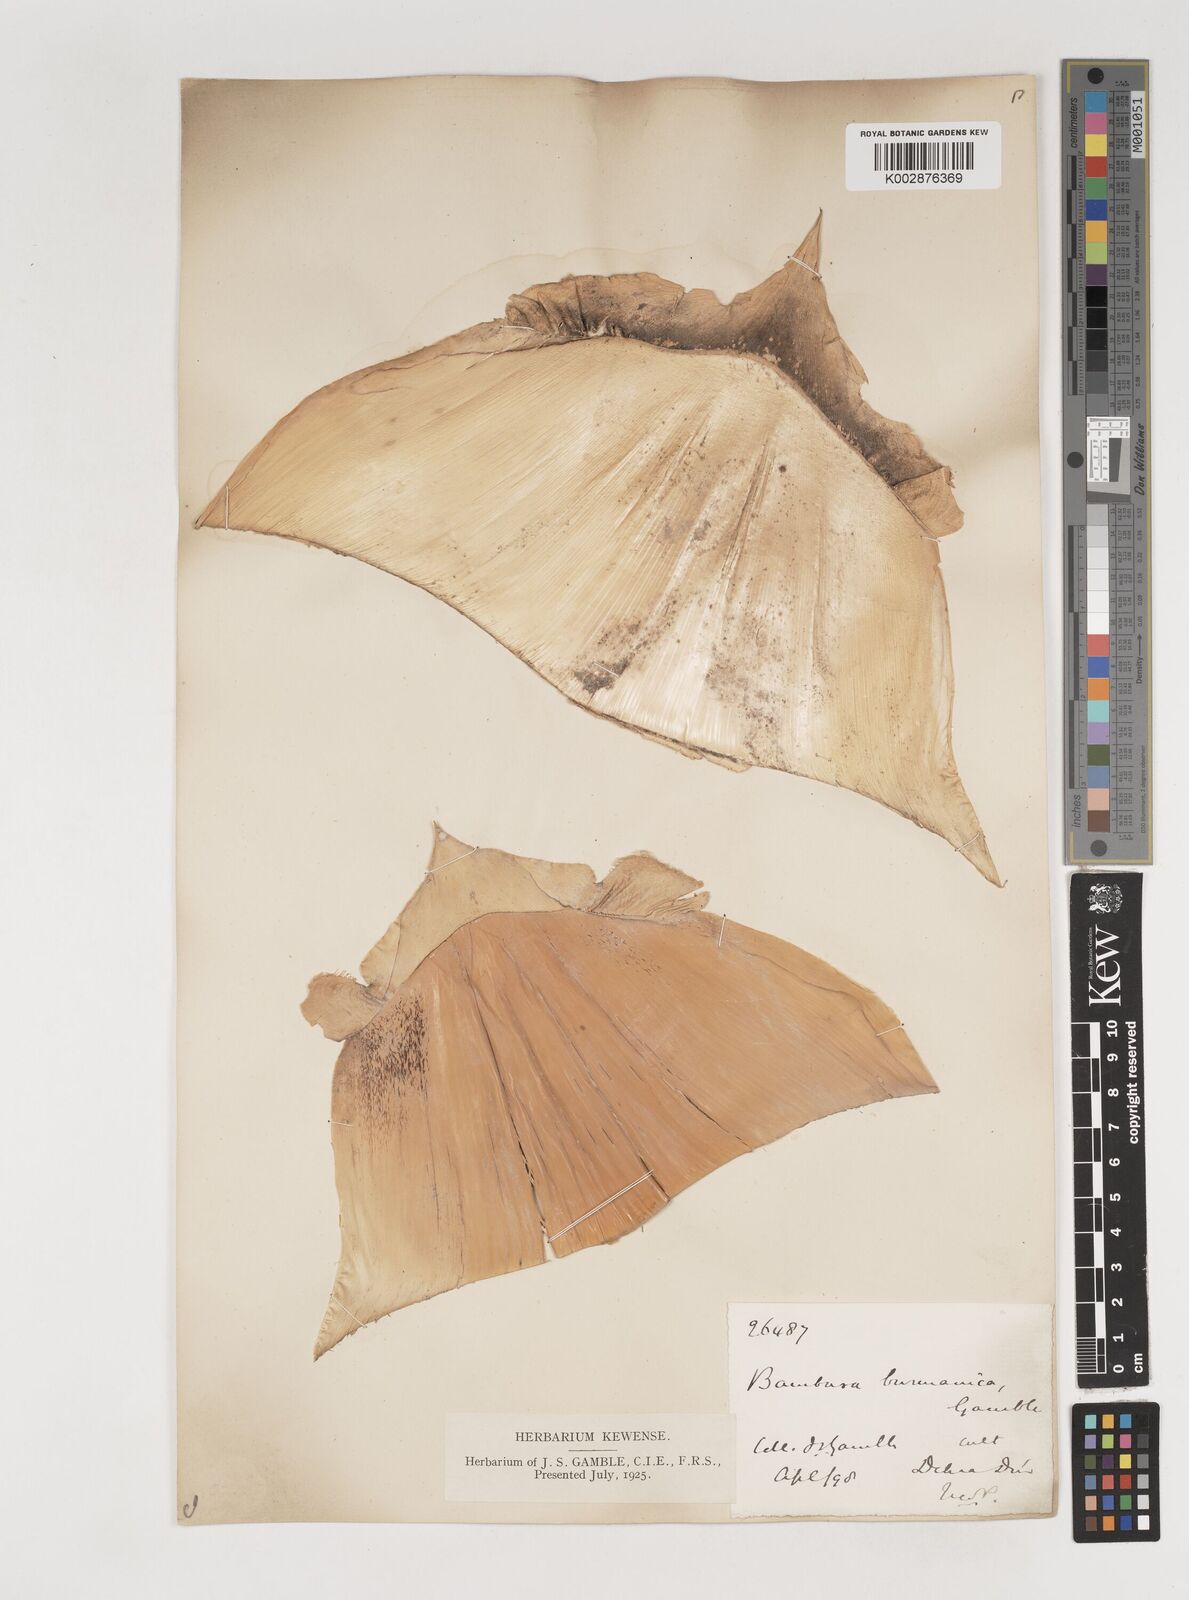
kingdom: Plantae
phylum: Tracheophyta
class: Liliopsida
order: Poales
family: Poaceae
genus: Bambusa
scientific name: Bambusa burmanica
